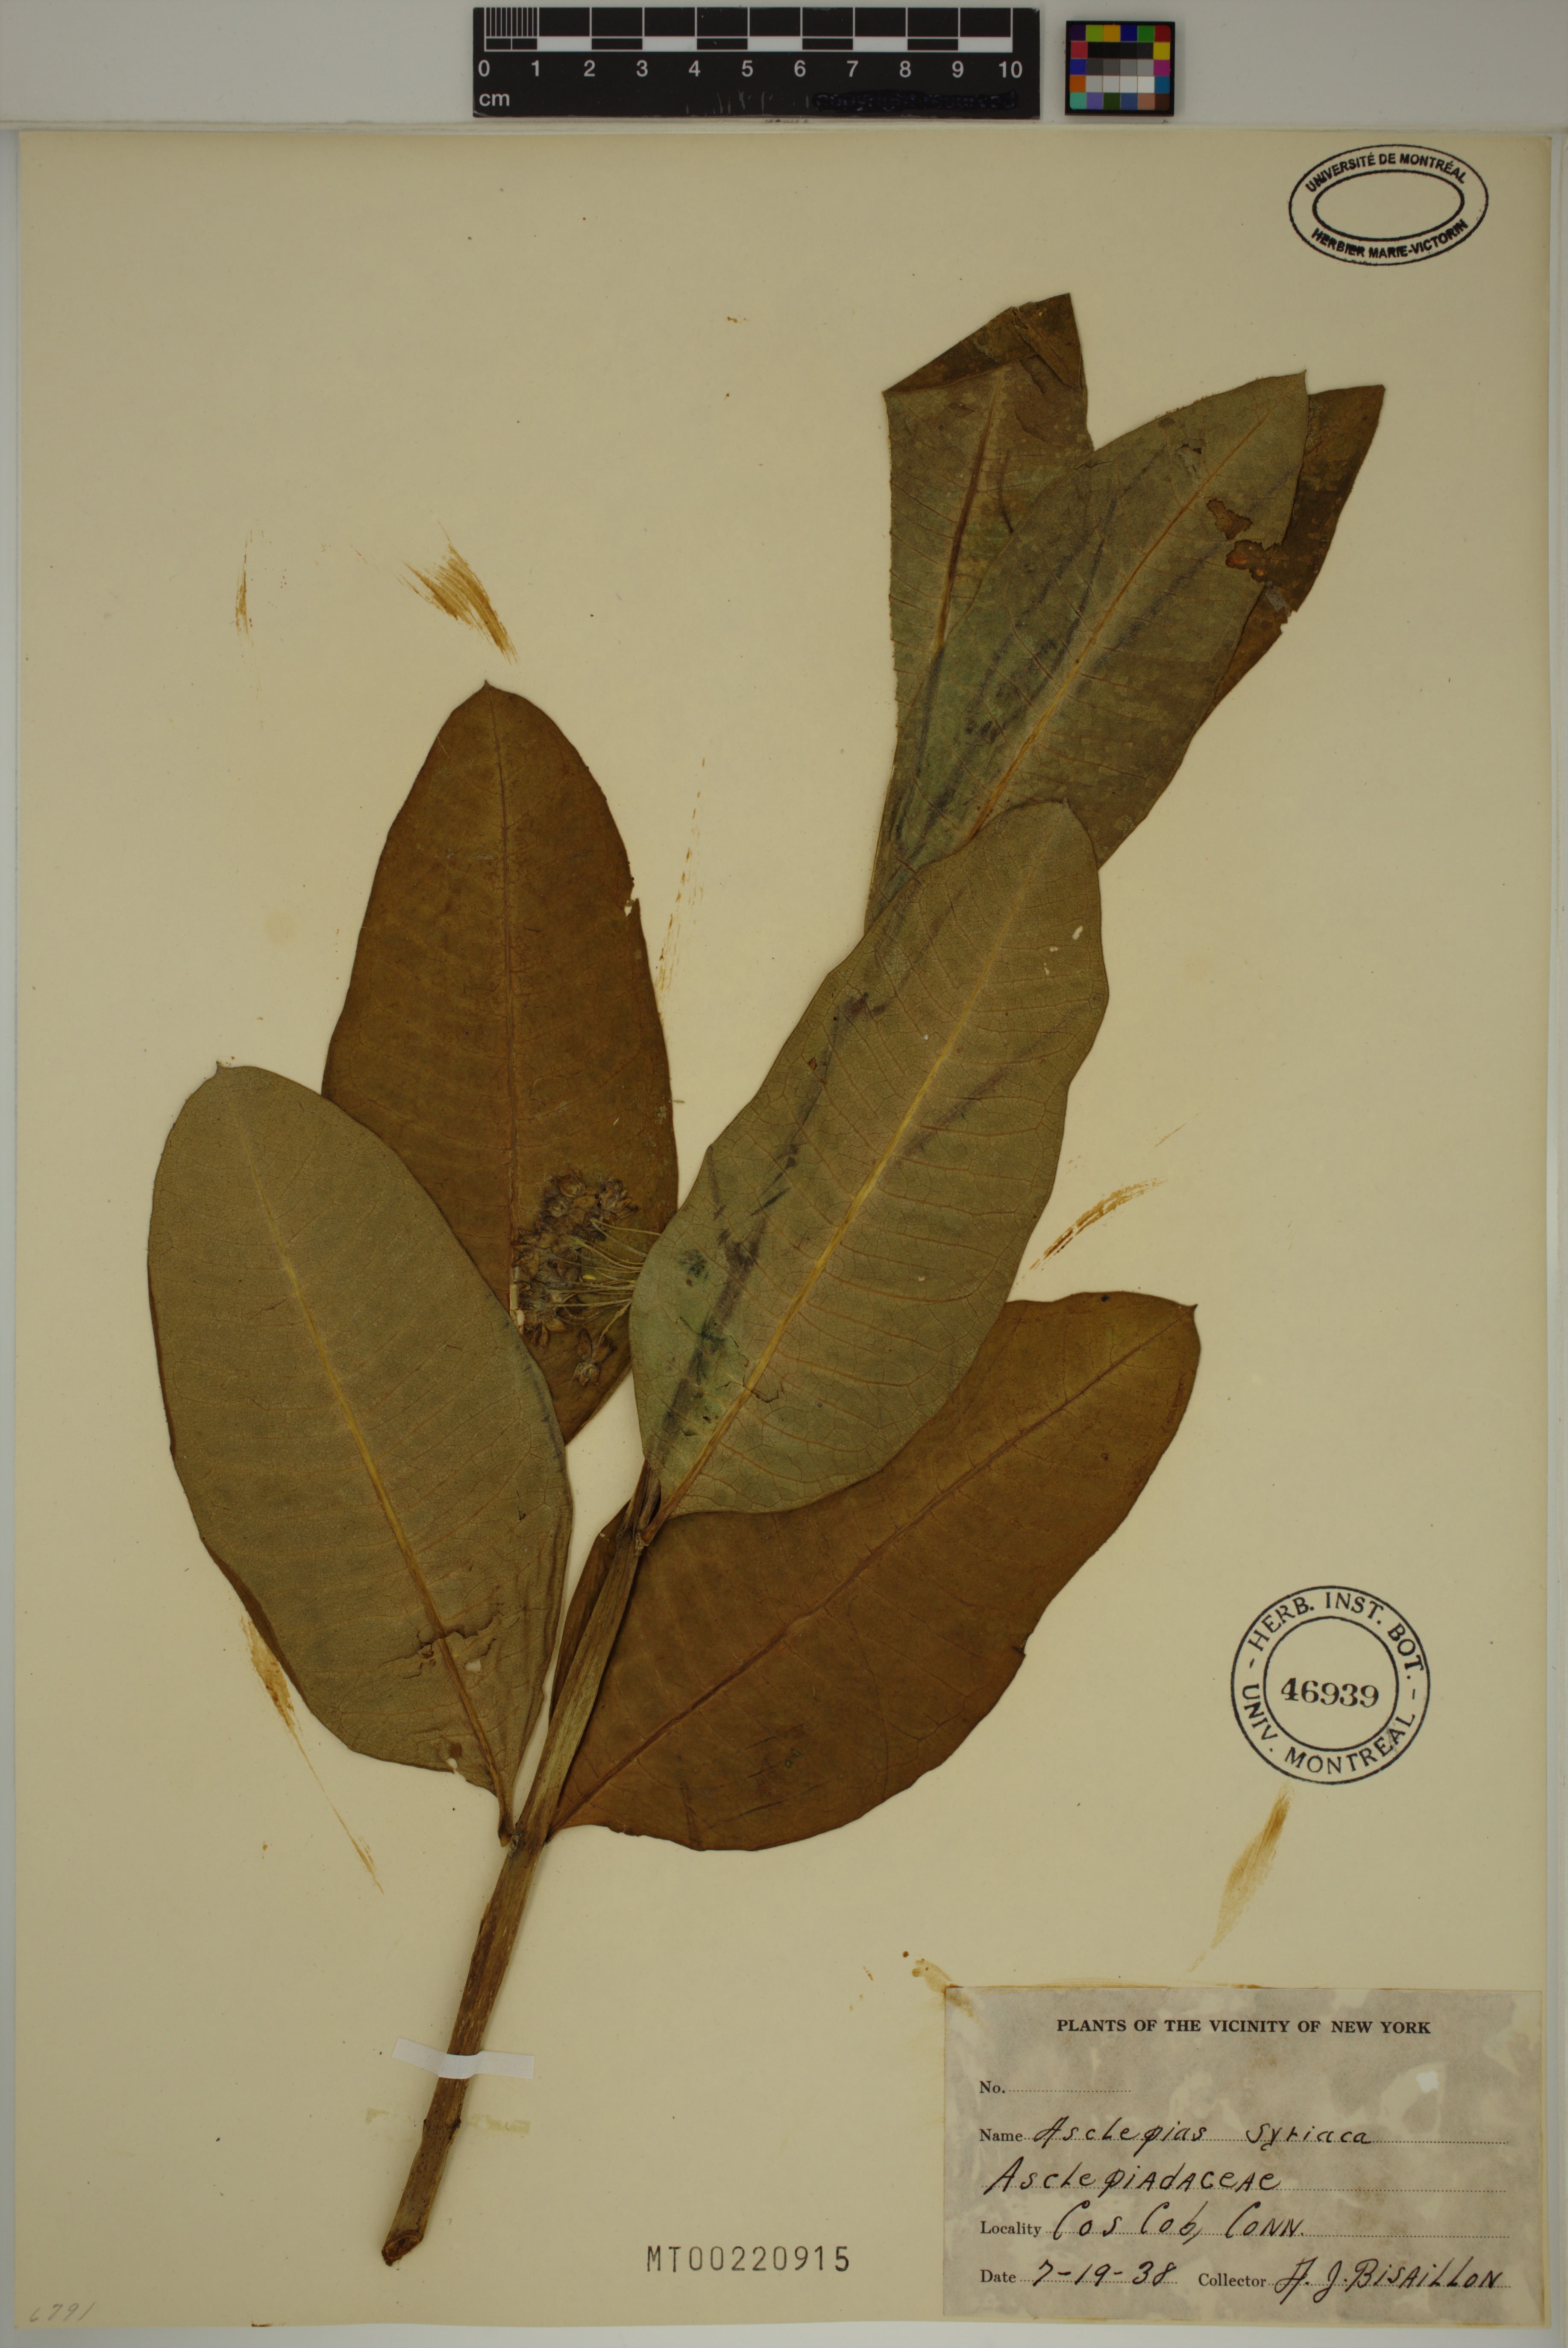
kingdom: Plantae
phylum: Tracheophyta
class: Magnoliopsida
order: Gentianales
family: Apocynaceae
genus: Asclepias
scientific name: Asclepias syriaca
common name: Common milkweed
